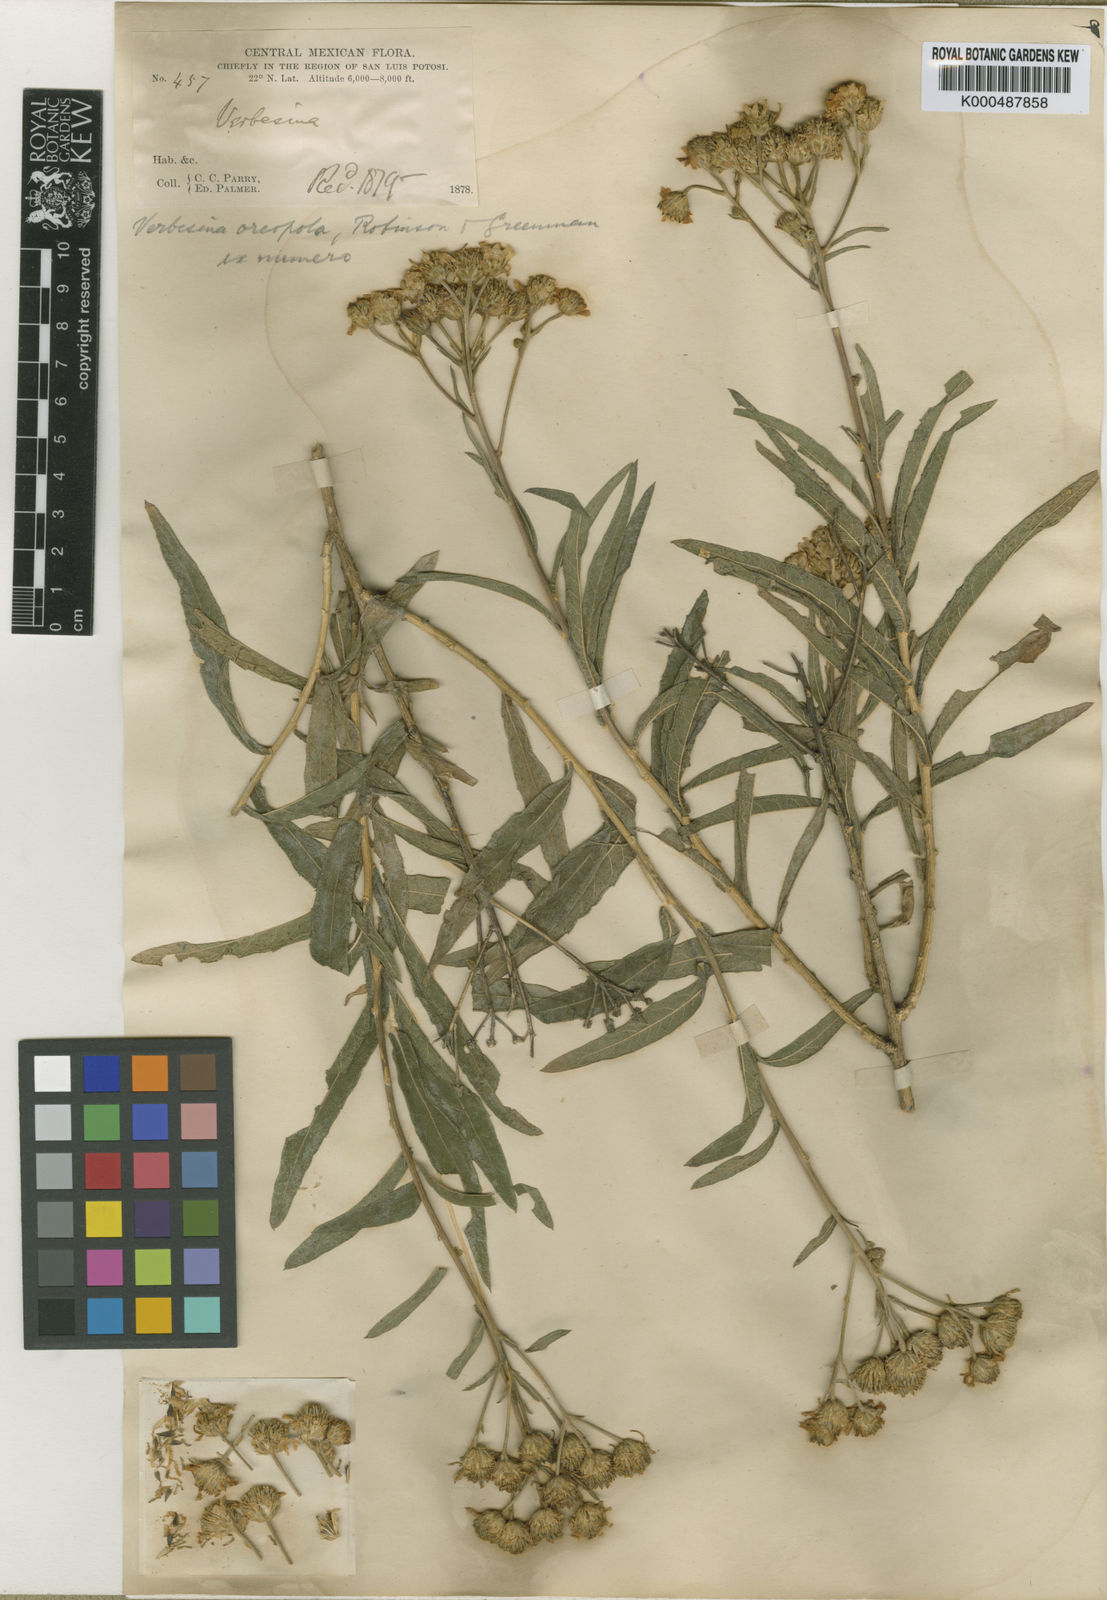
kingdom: Plantae
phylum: Tracheophyta
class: Magnoliopsida
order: Asterales
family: Asteraceae
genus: Verbesina
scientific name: Verbesina virgata
